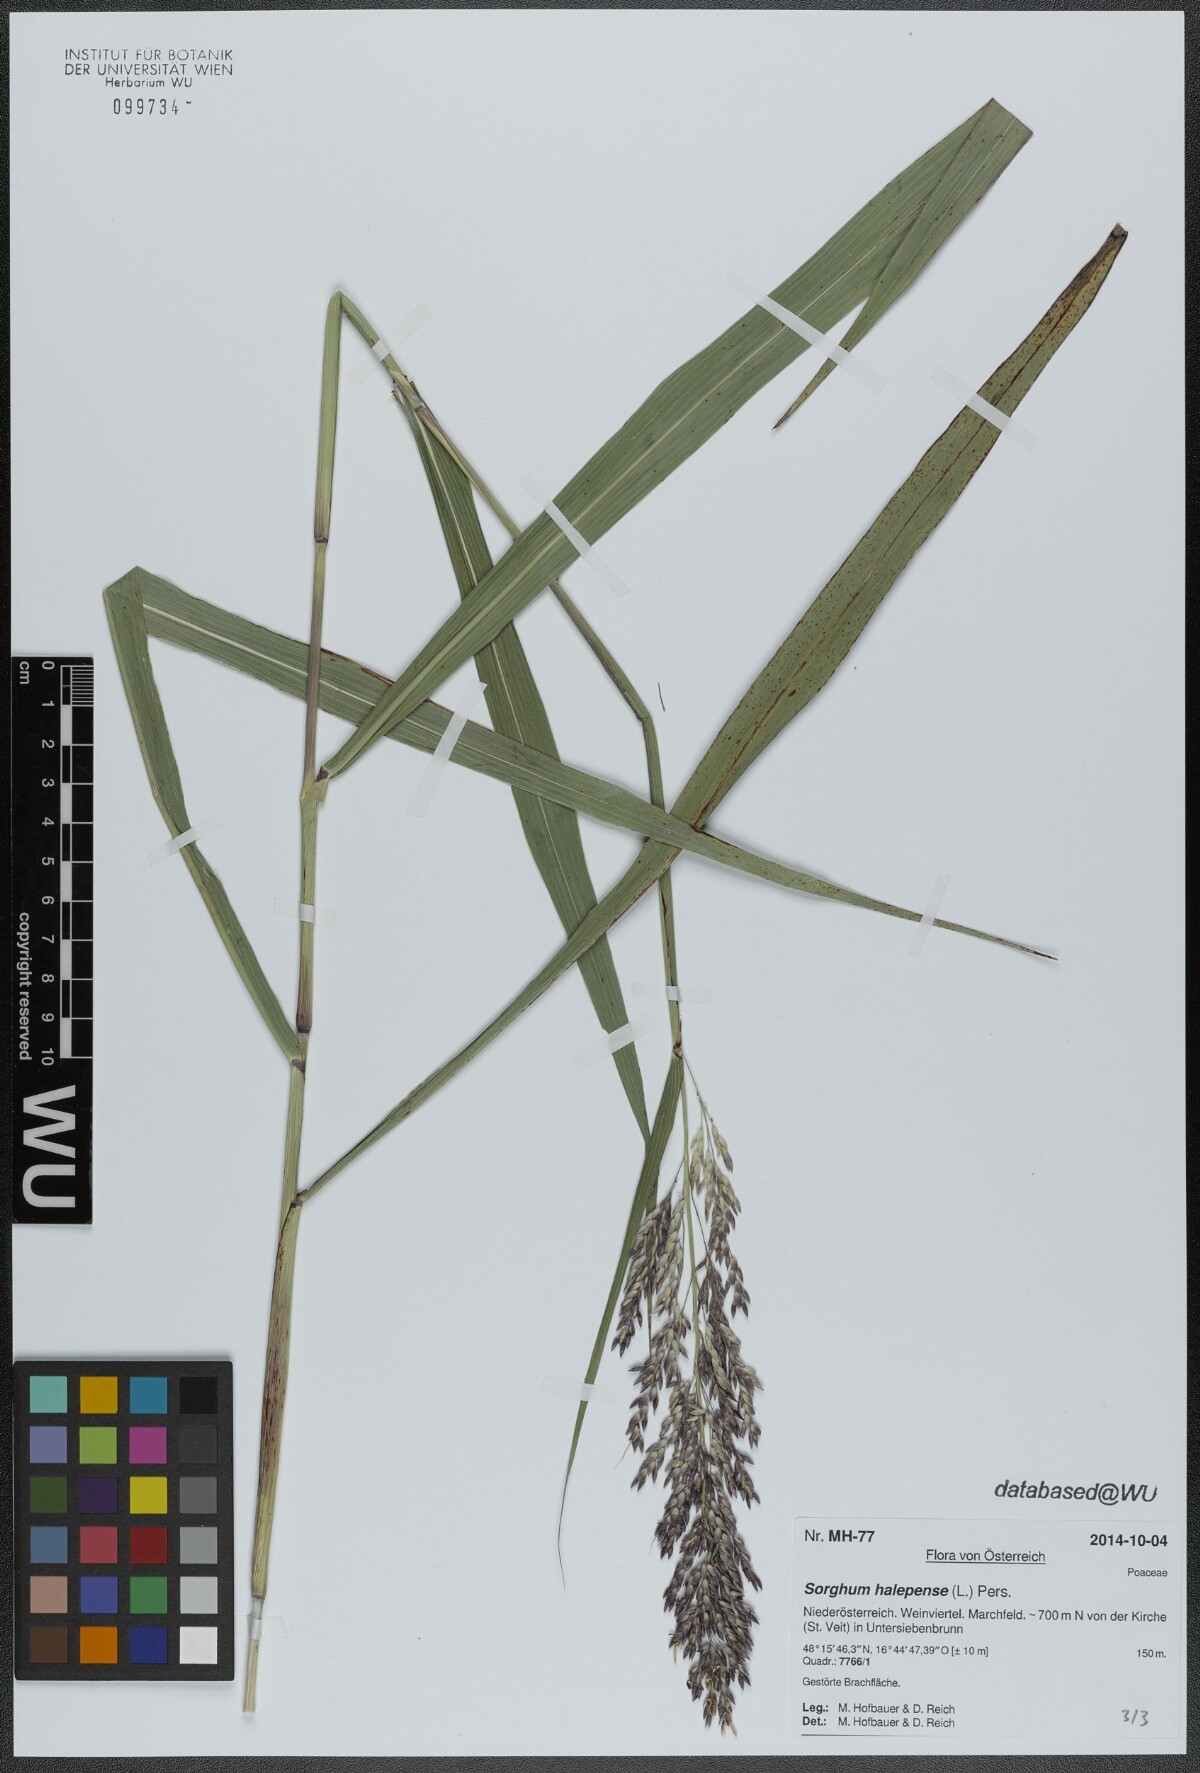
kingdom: Plantae
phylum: Tracheophyta
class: Liliopsida
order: Poales
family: Poaceae
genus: Sorghum
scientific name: Sorghum halepense
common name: Johnson-grass
